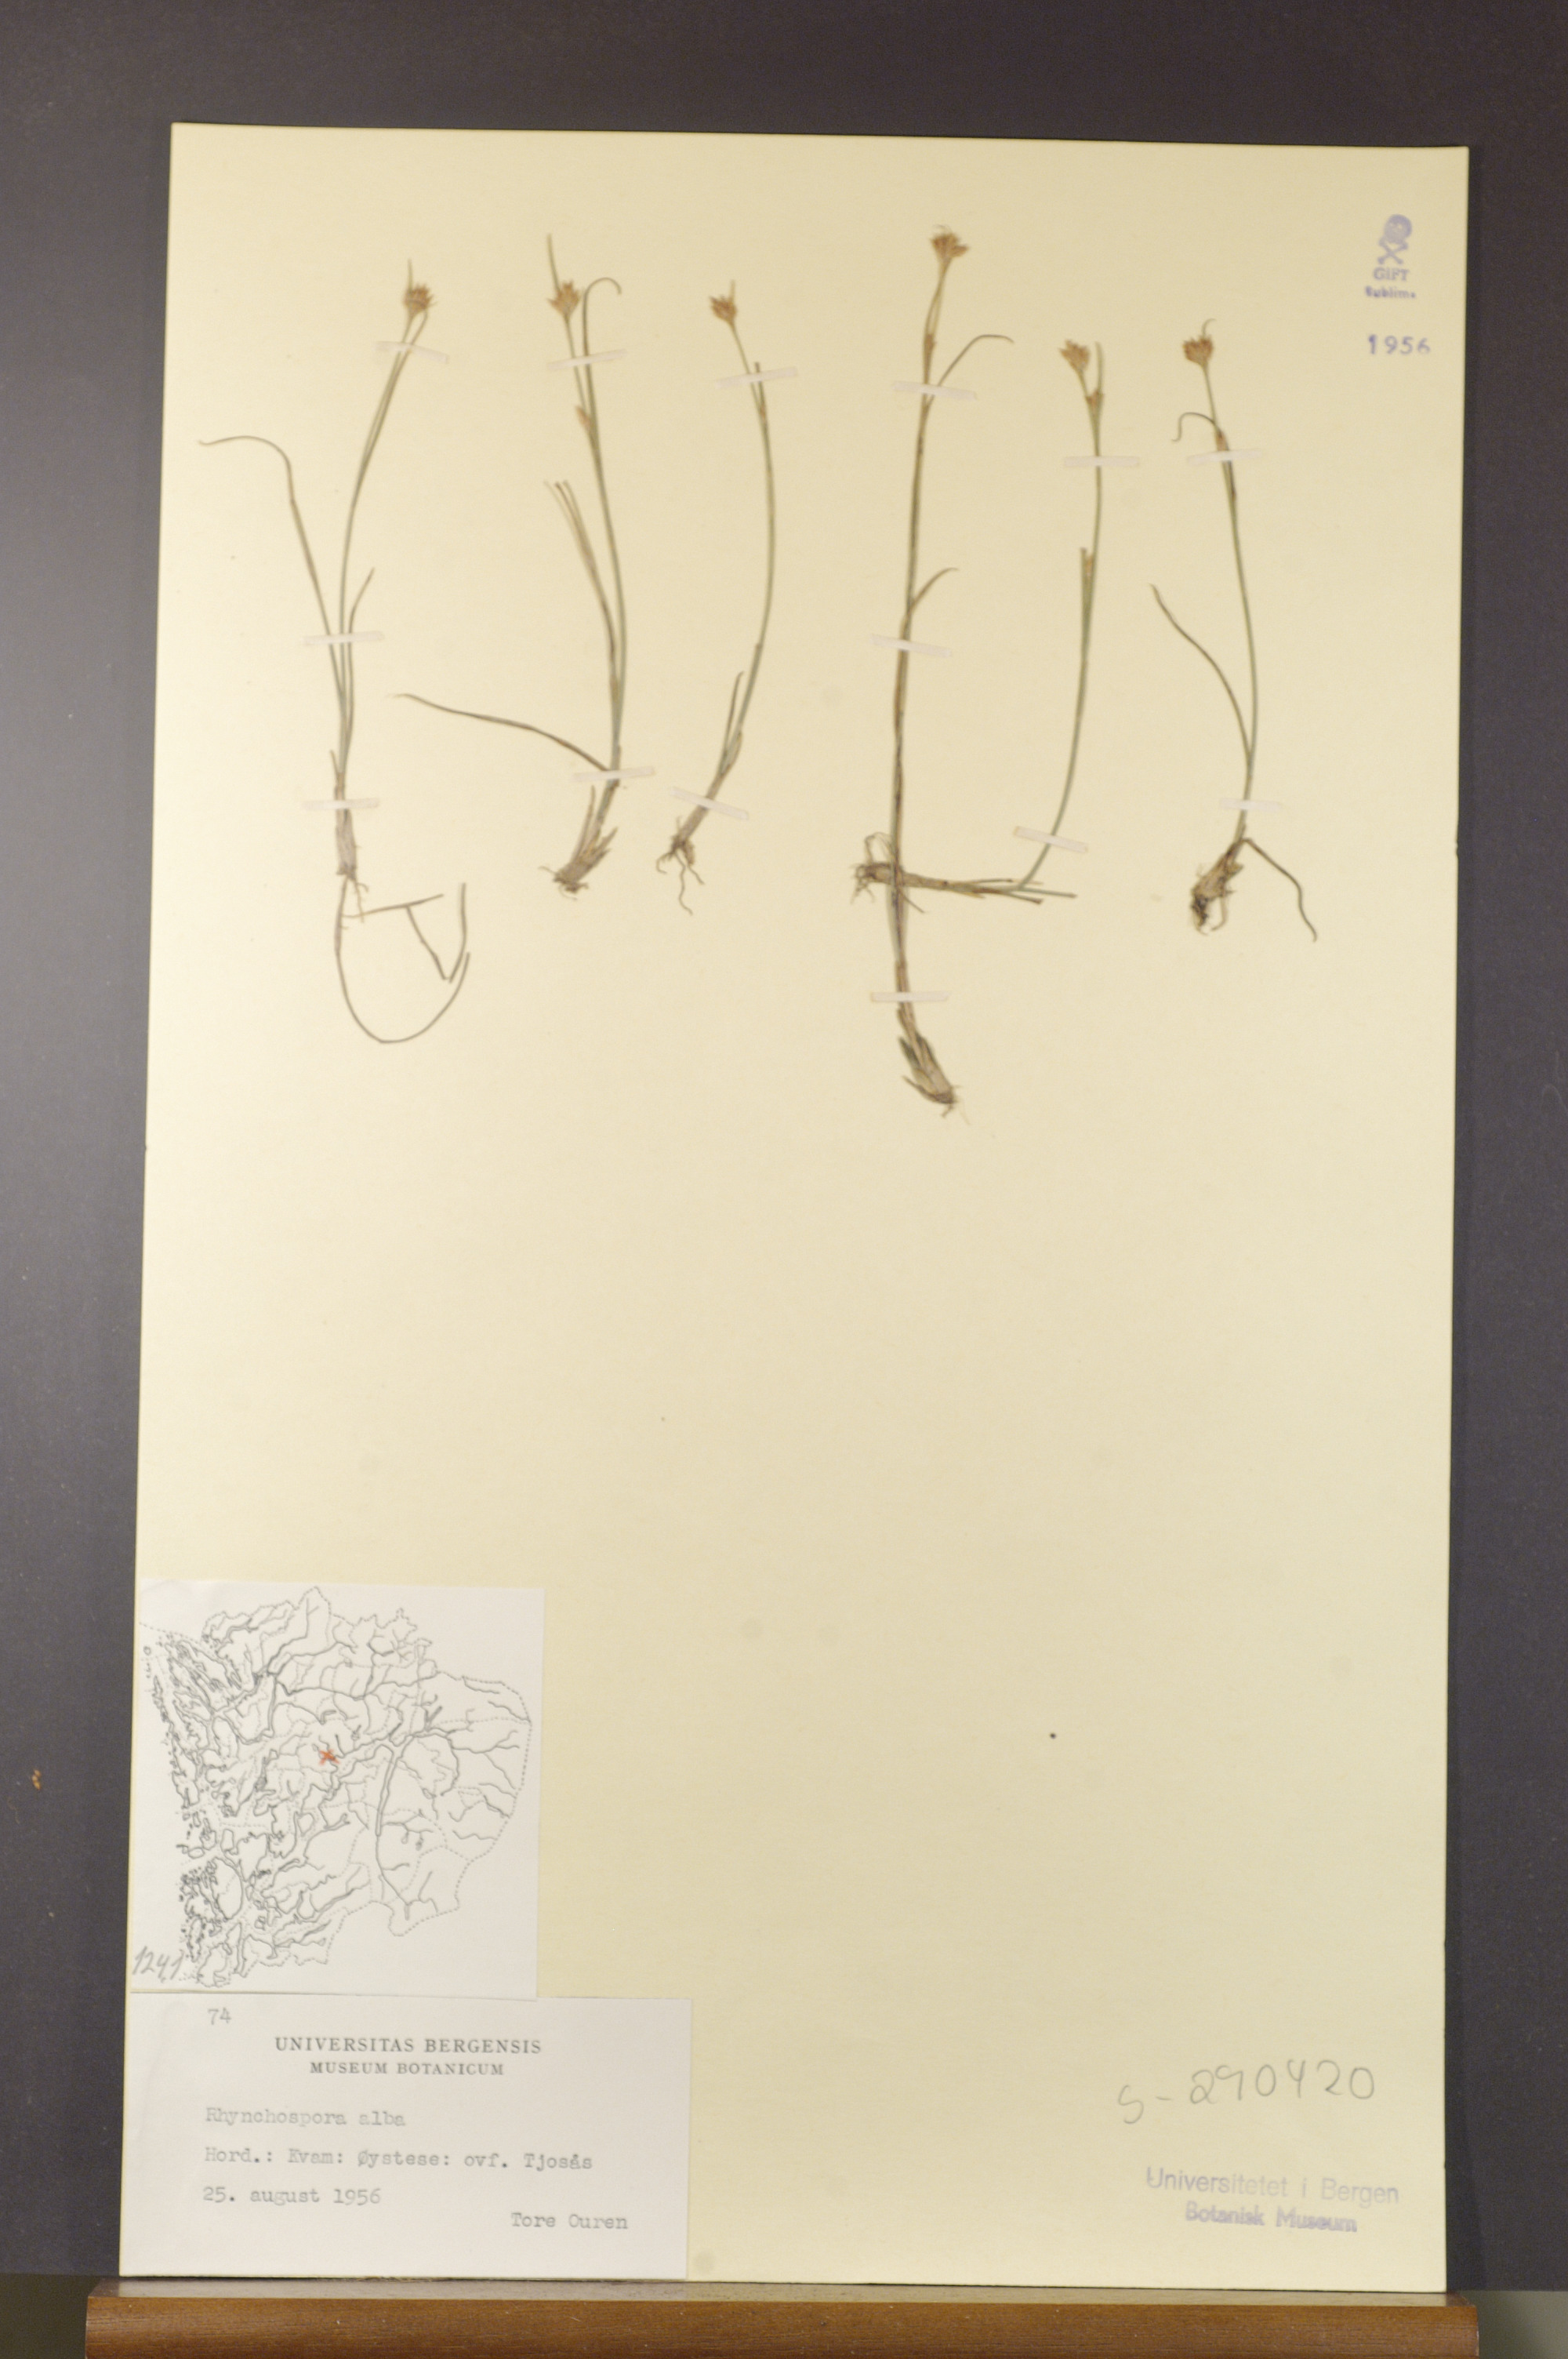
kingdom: Plantae
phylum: Tracheophyta
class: Liliopsida
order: Poales
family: Cyperaceae
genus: Rhynchospora
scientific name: Rhynchospora alba
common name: White beak-sedge
